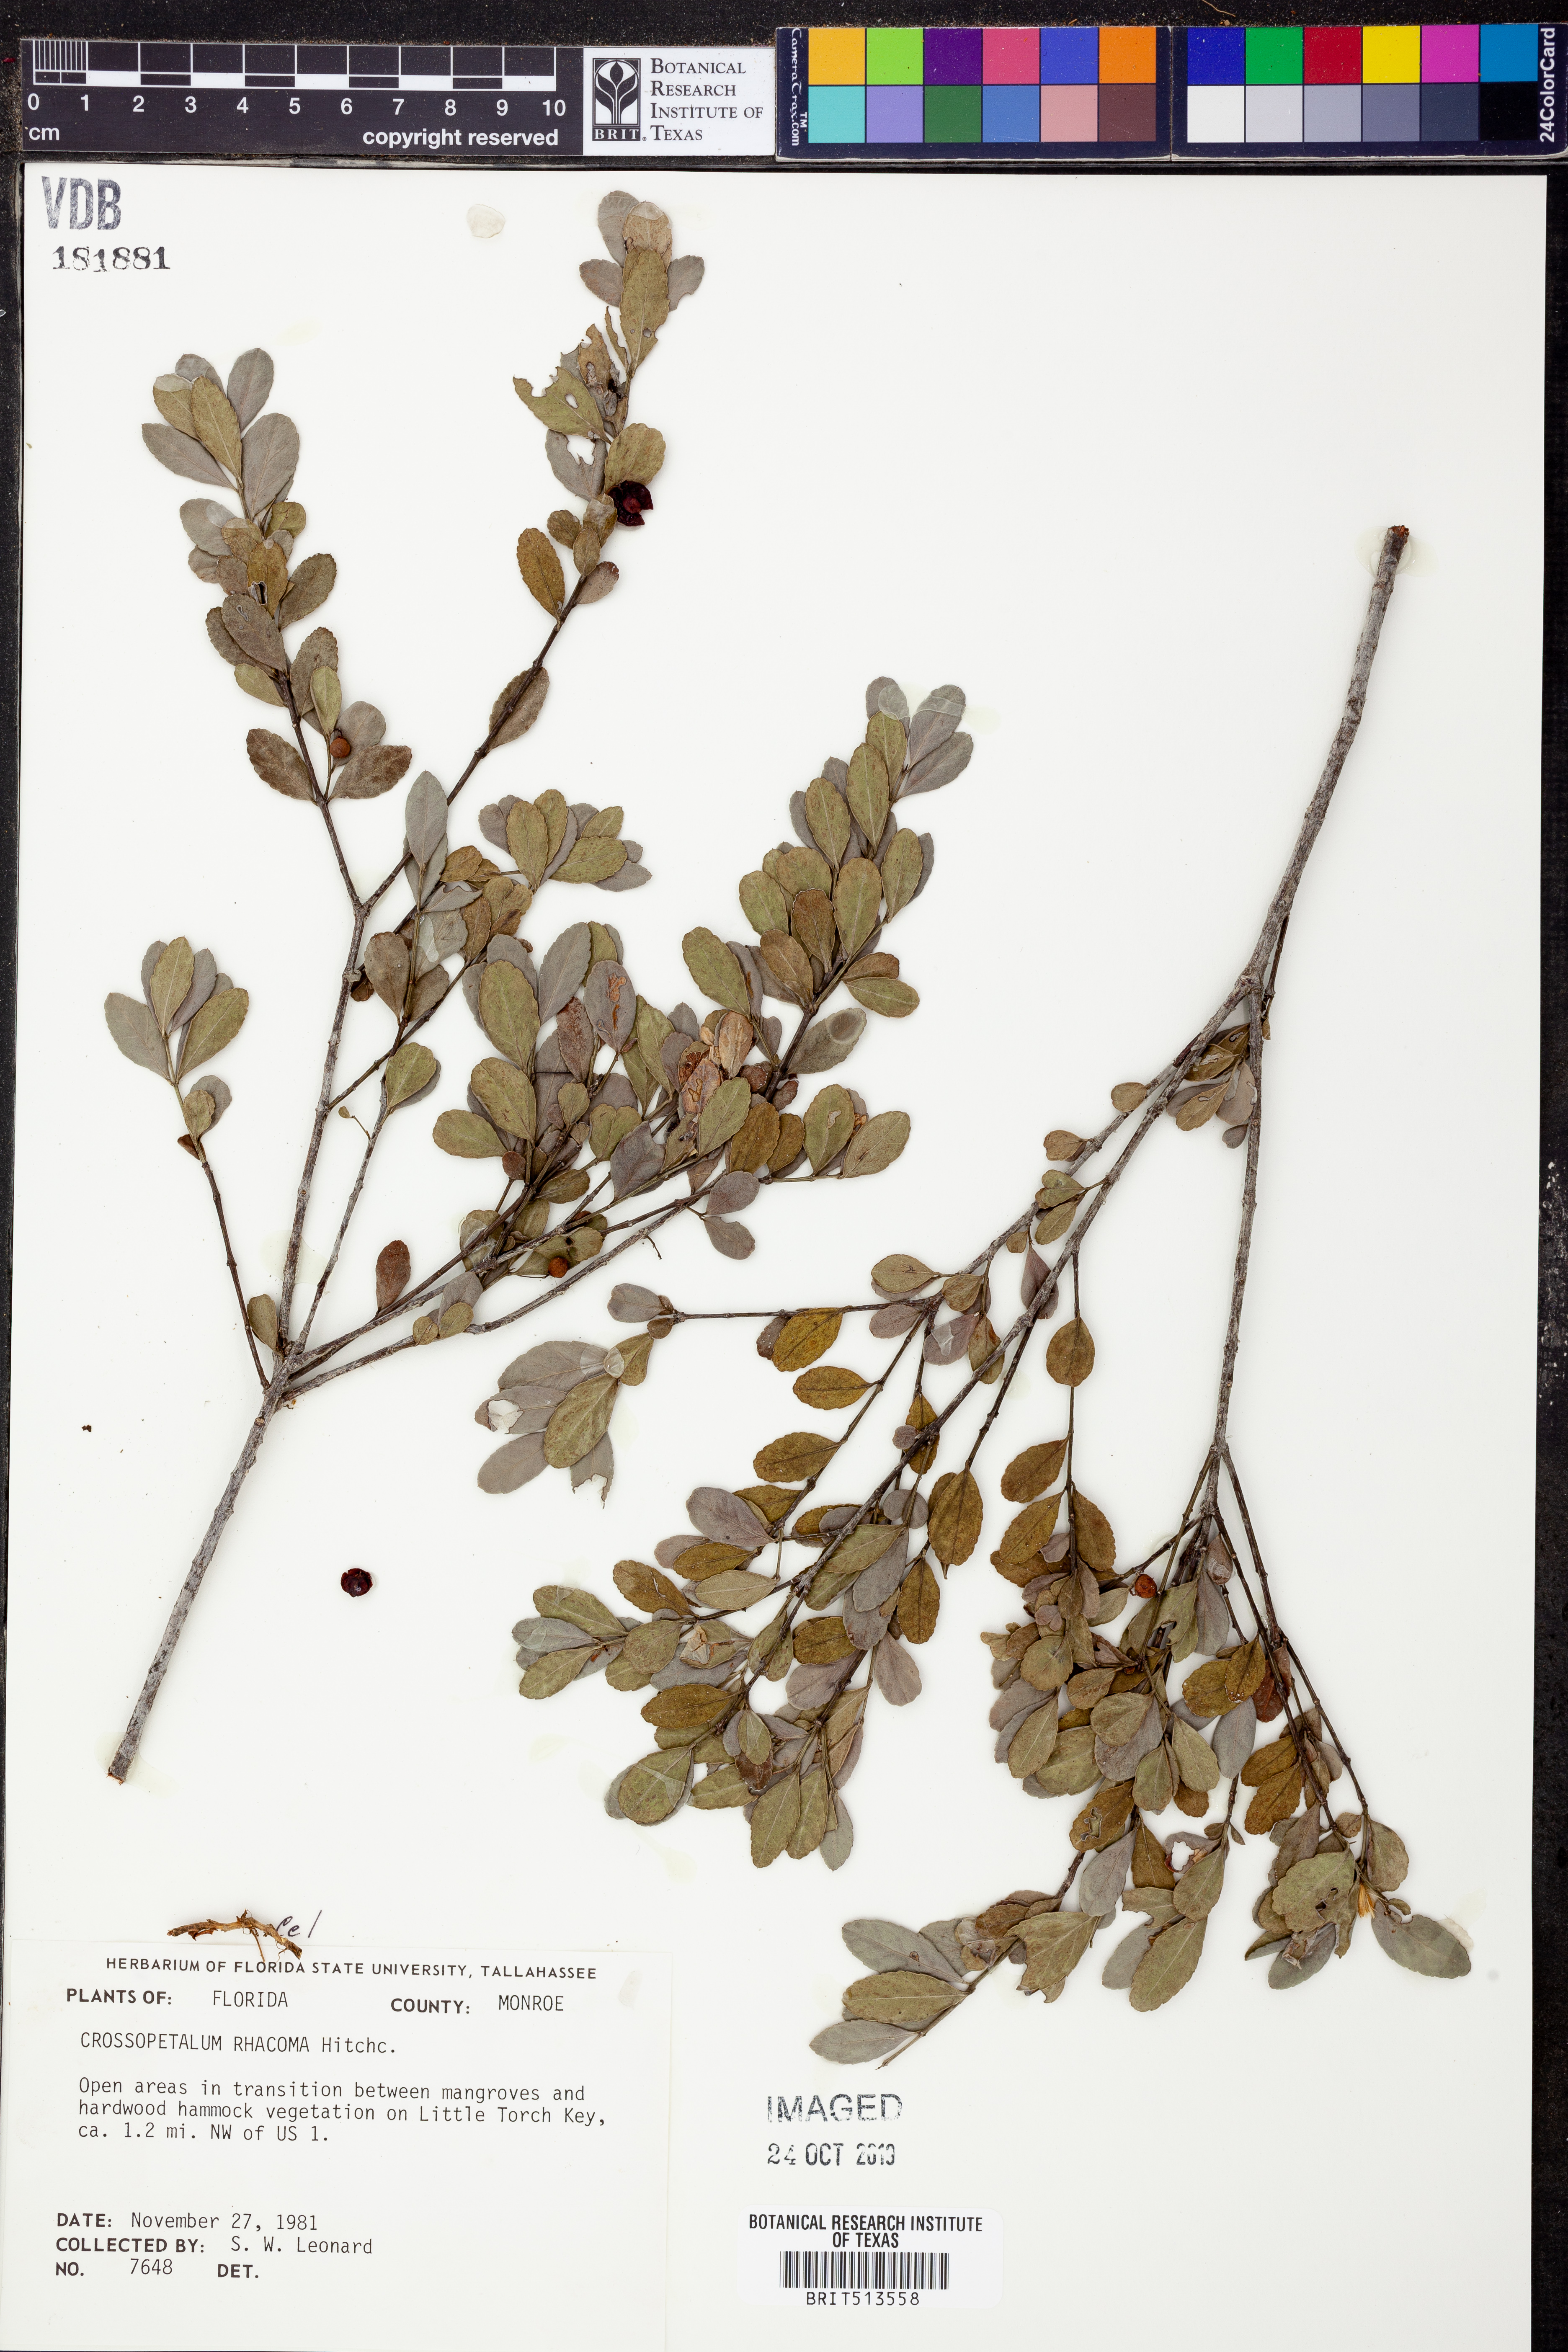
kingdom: Plantae
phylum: Tracheophyta
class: Magnoliopsida
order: Celastrales
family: Celastraceae
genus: Crossopetalum
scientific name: Crossopetalum rhacoma
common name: Maidenberry
